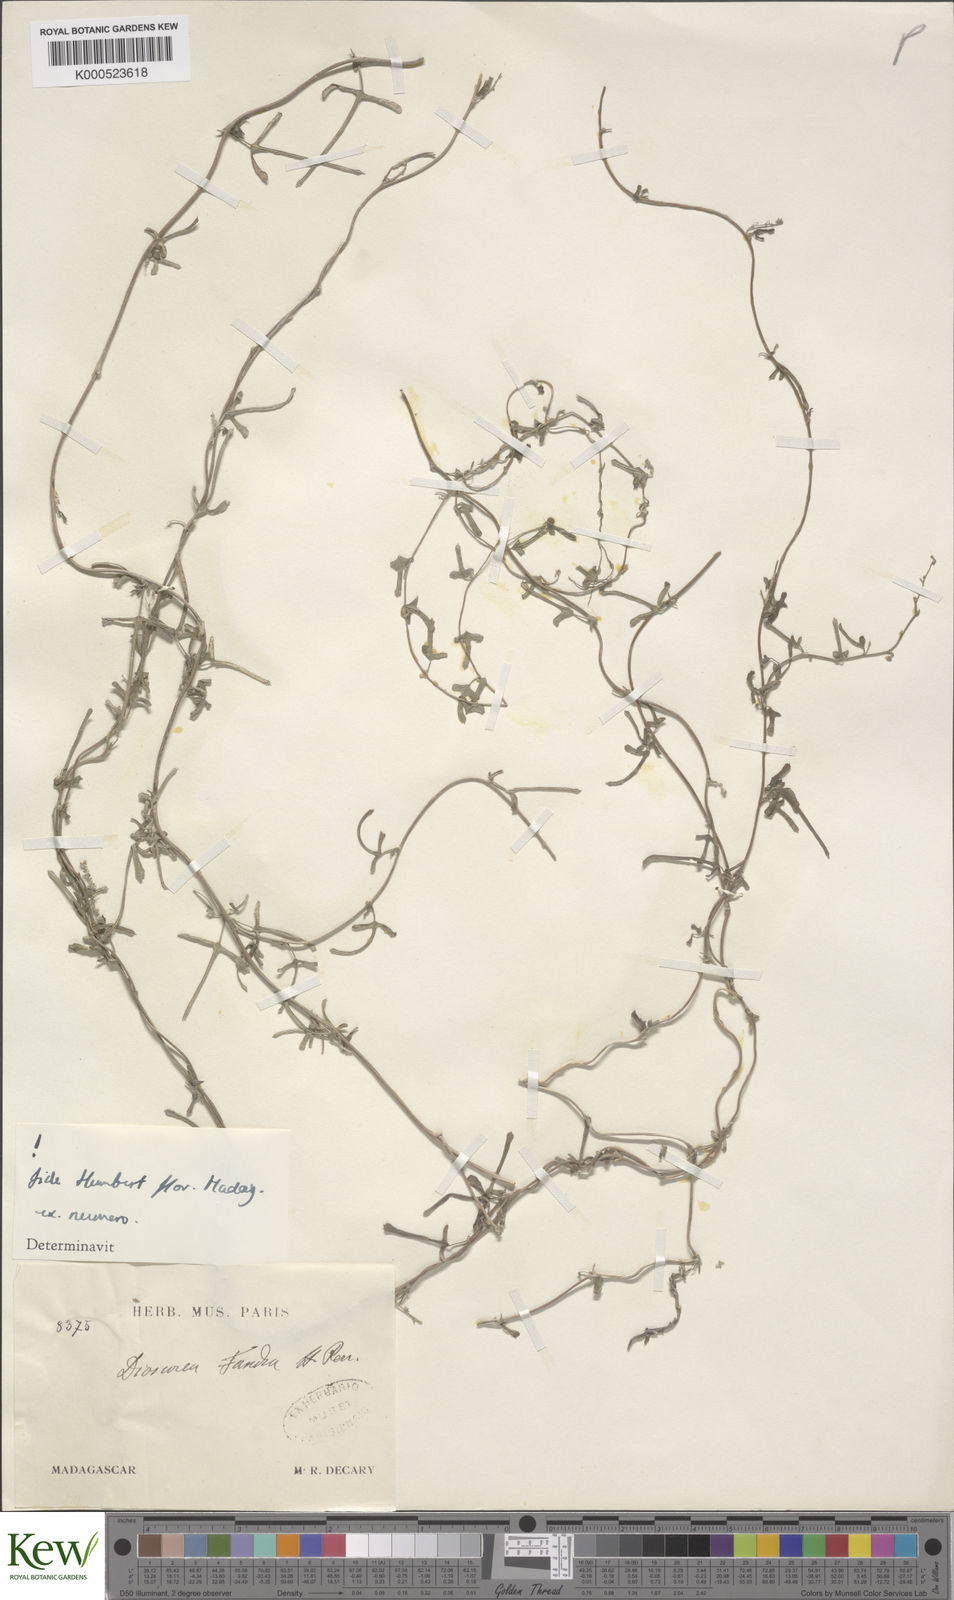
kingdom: Plantae
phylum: Tracheophyta
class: Liliopsida
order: Dioscoreales
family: Dioscoreaceae
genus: Dioscorea
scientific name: Dioscorea fandra
